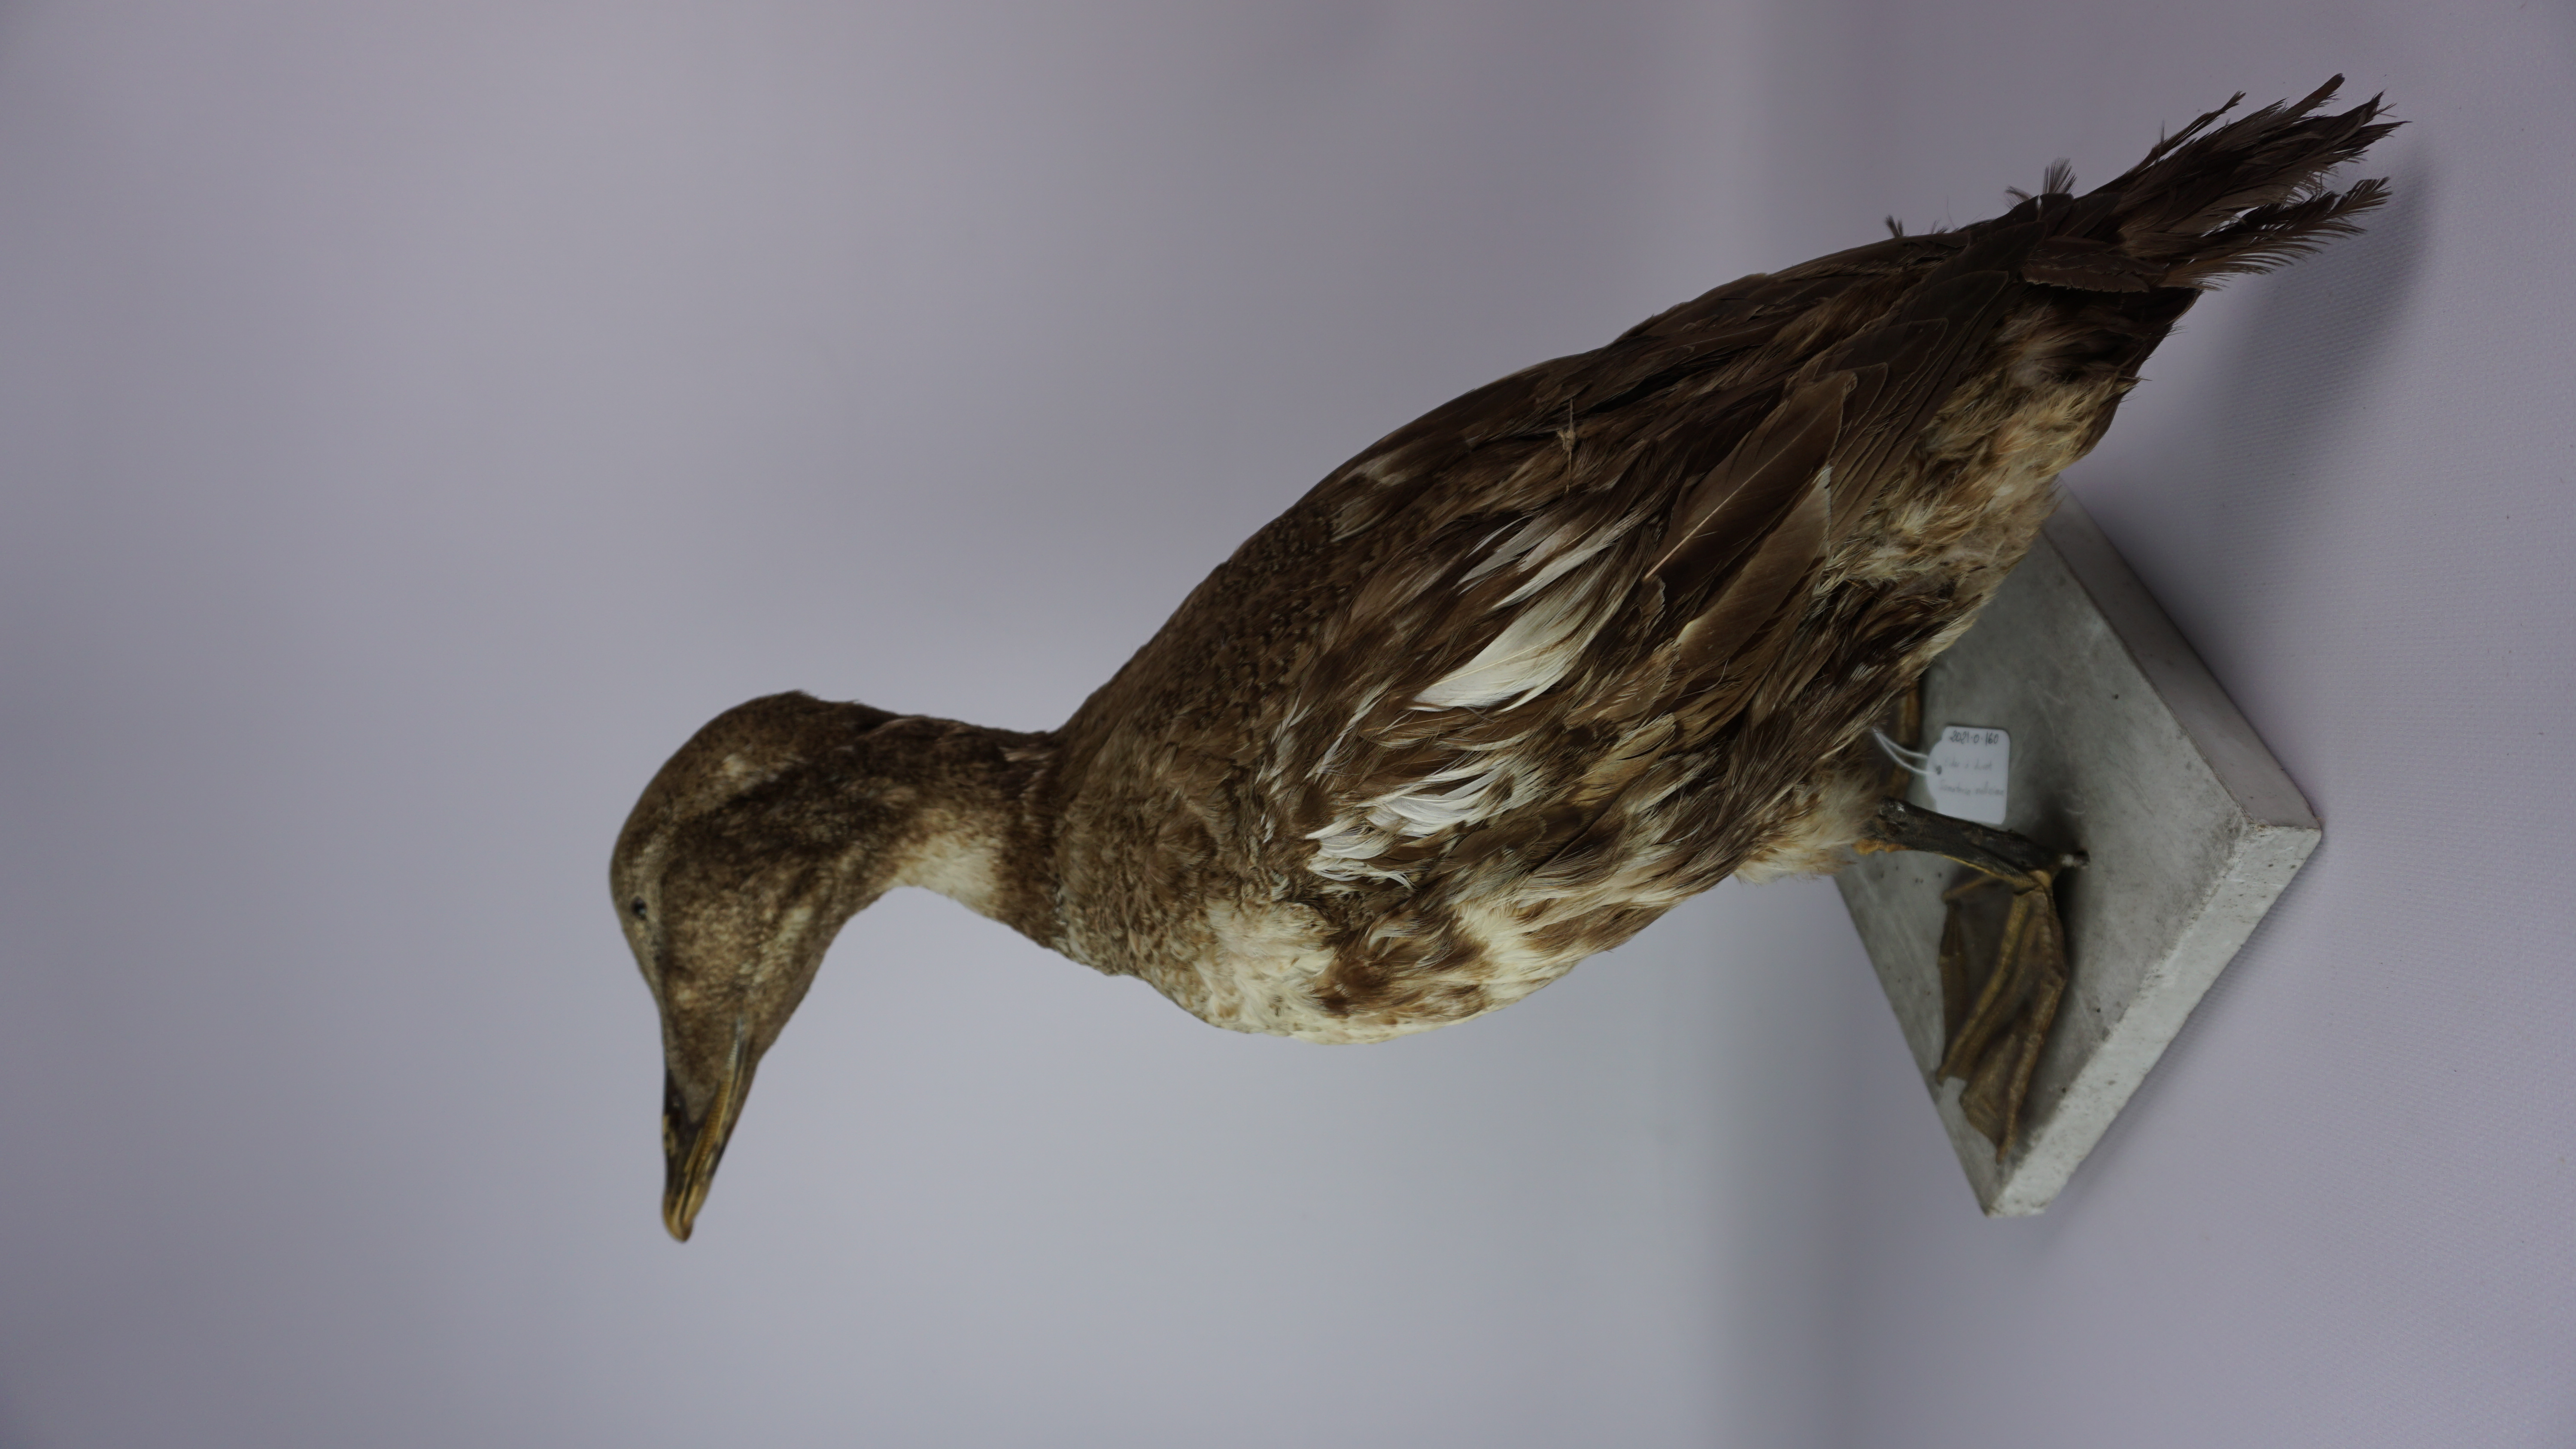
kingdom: Animalia
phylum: Chordata
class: Aves
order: Anseriformes
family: Anatidae
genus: Somateria
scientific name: Somateria mollissima
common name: Common eider
